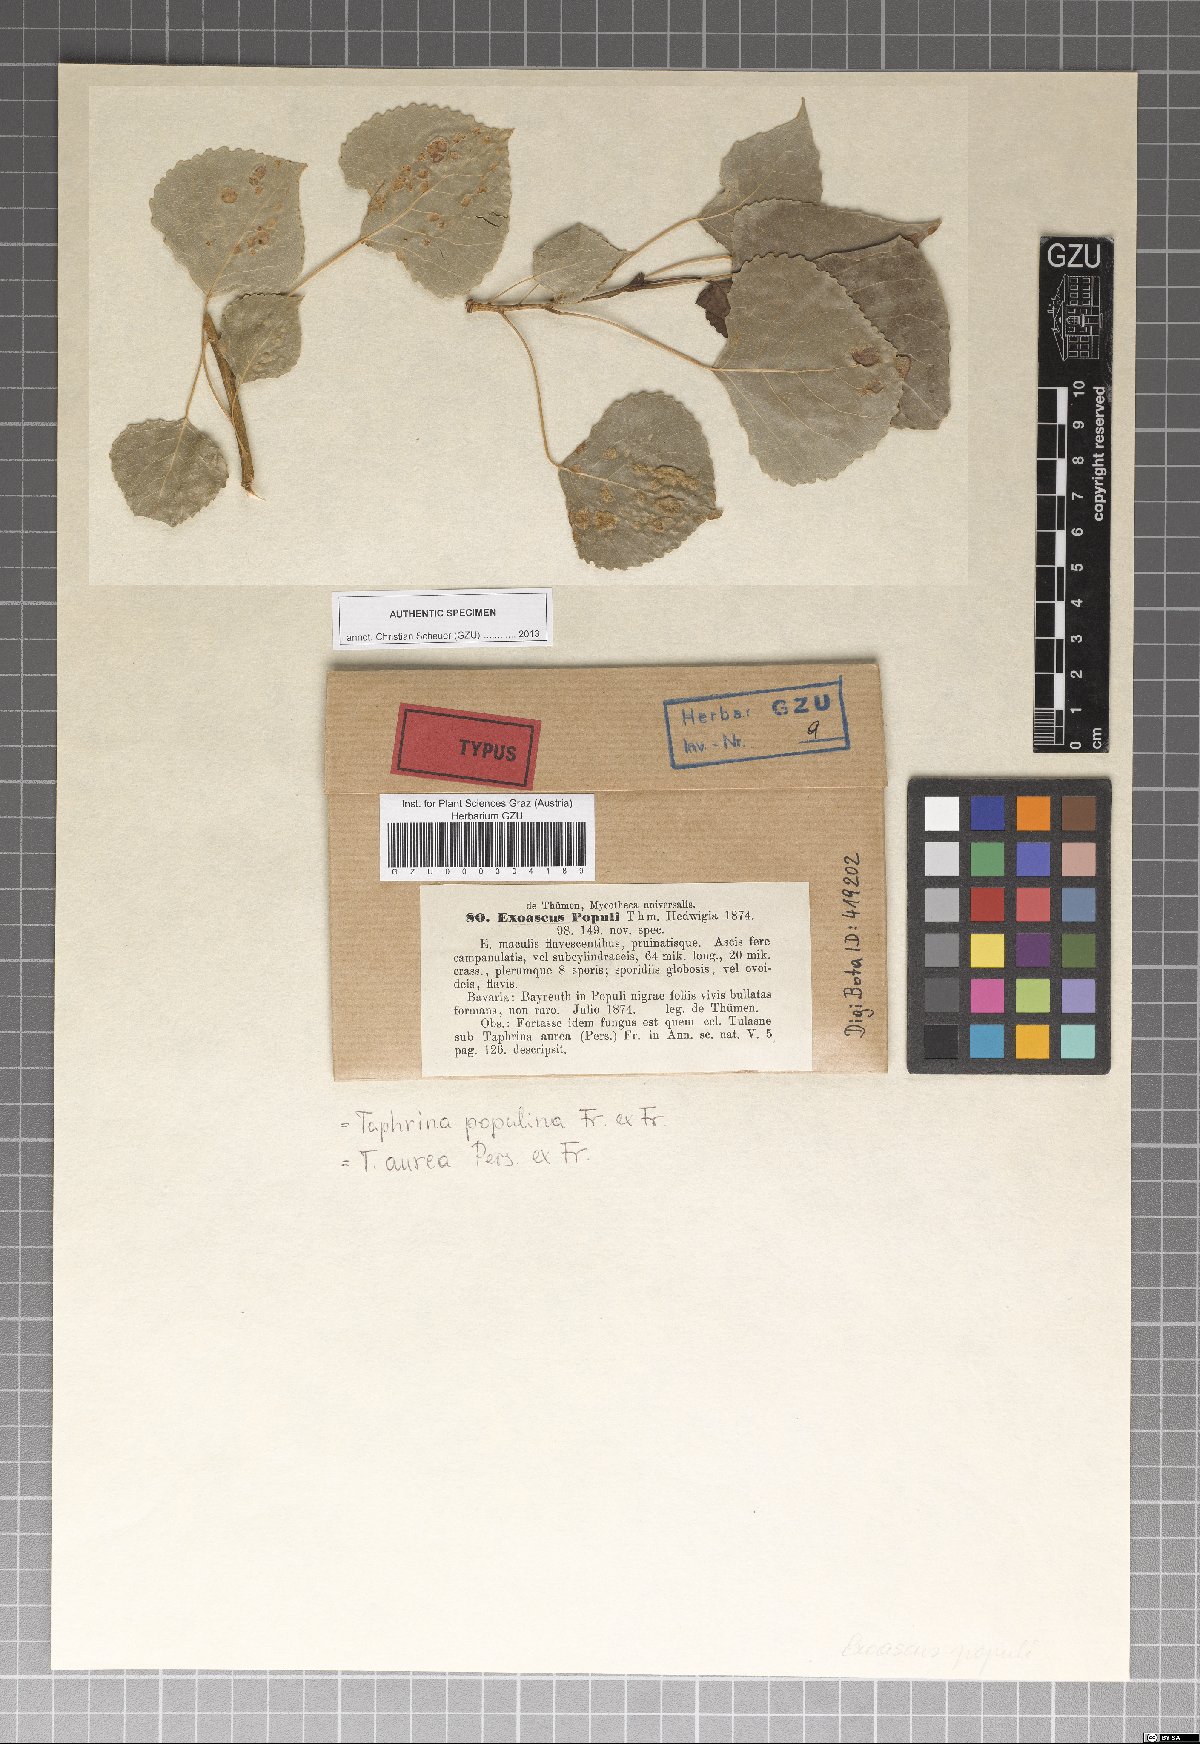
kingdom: Fungi
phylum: Ascomycota
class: Taphrinomycetes
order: Taphrinales
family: Taphrinaceae
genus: Taphrina
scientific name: Taphrina populina
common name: Poplar leaf curl
